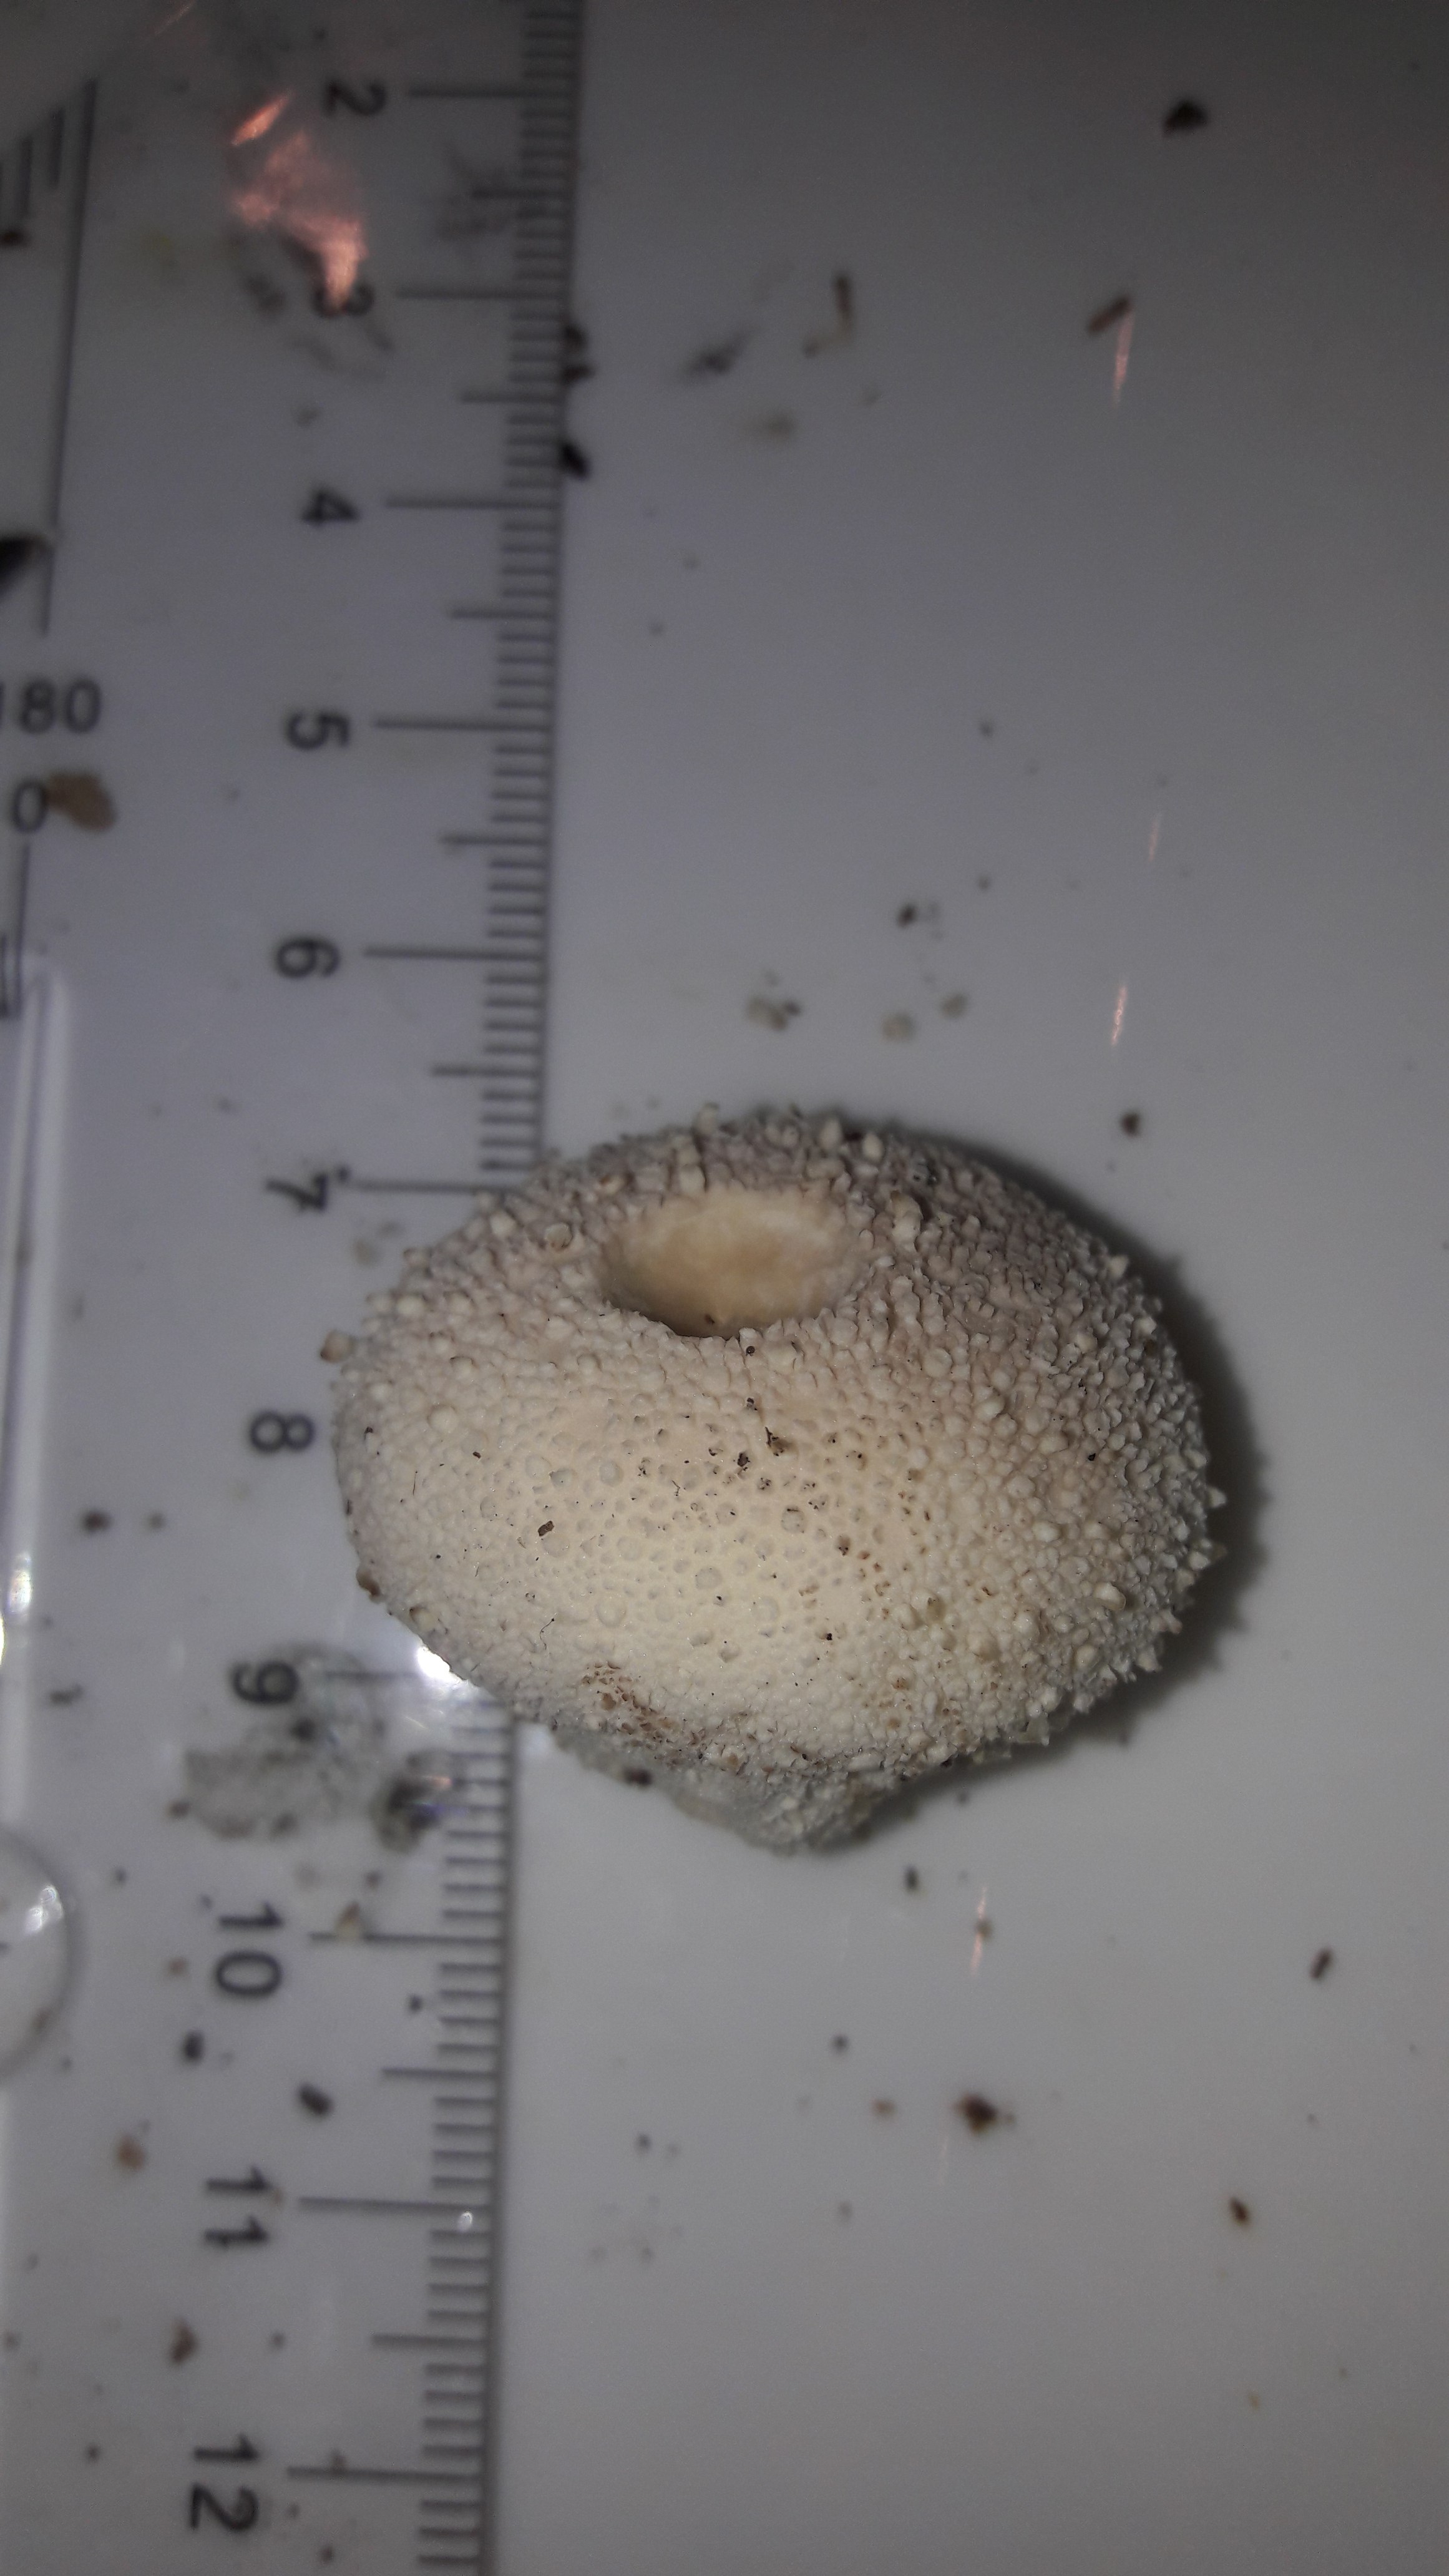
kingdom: Fungi
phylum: Basidiomycota
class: Agaricomycetes
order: Agaricales
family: Lycoperdaceae
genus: Lycoperdon
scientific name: Lycoperdon perlatum
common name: krystal-støvbold
